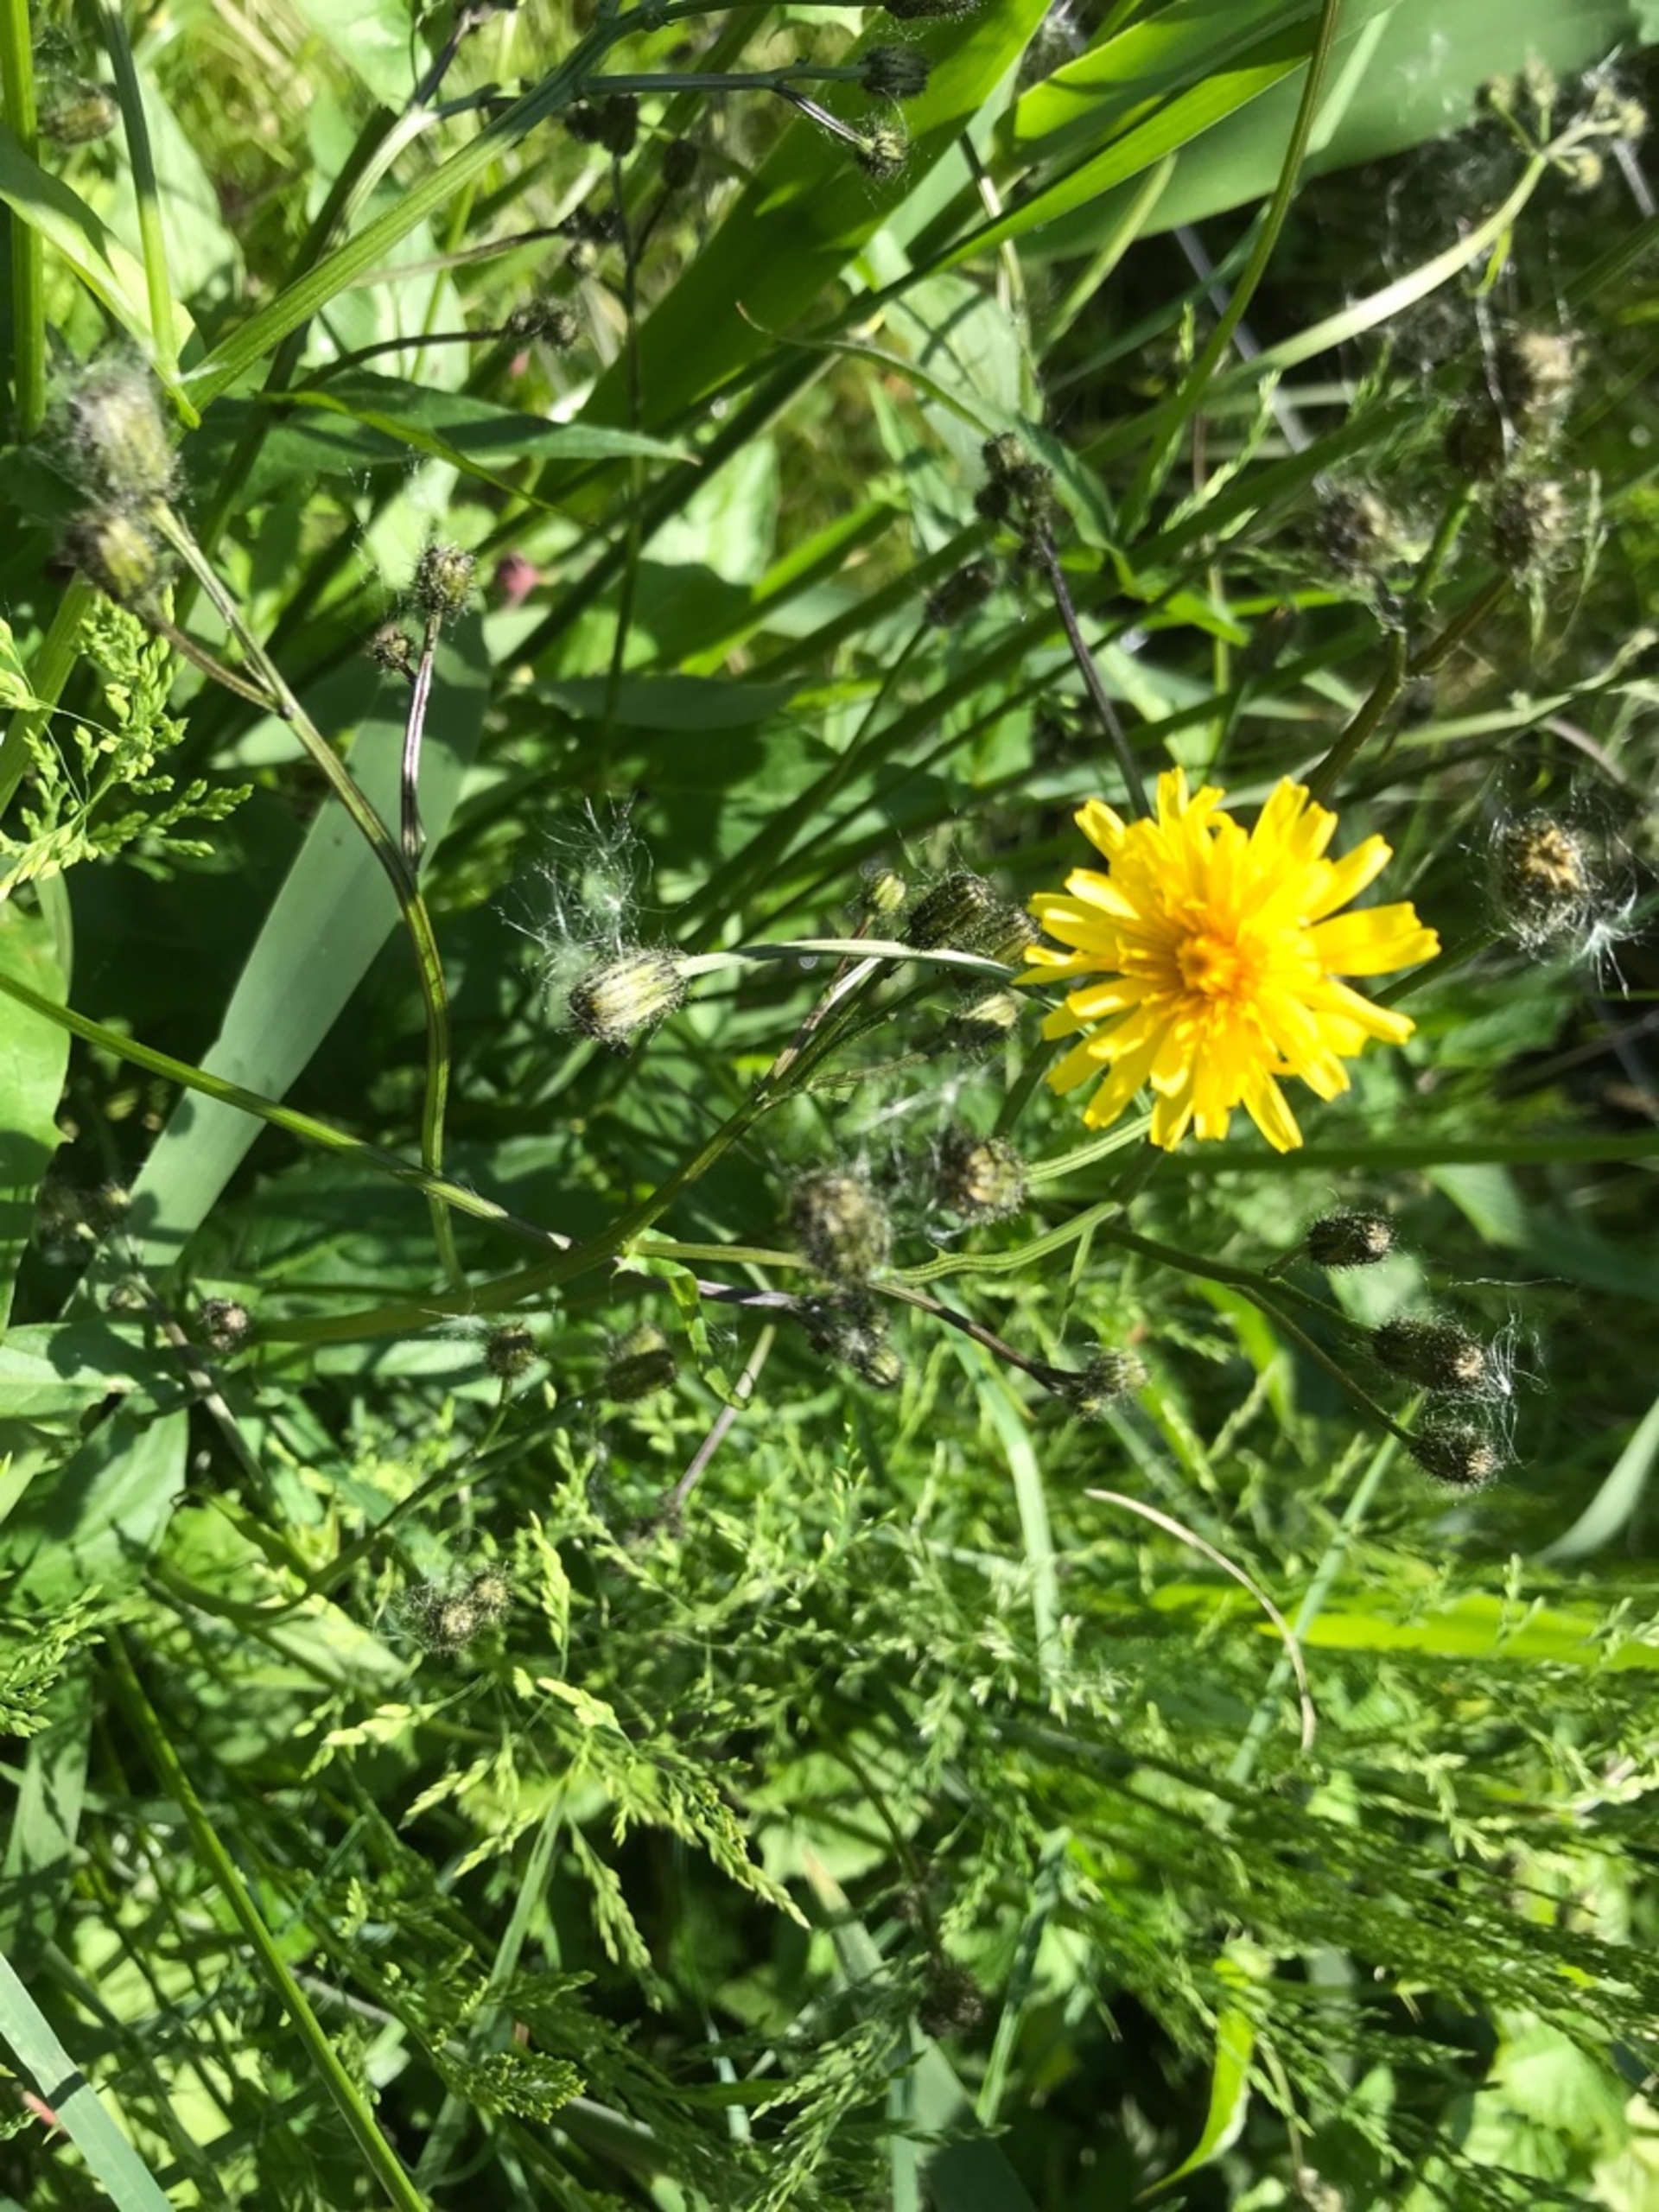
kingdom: Plantae
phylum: Tracheophyta
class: Magnoliopsida
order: Asterales
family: Asteraceae
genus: Crepis
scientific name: Crepis paludosa
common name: Kær-høgeskæg
